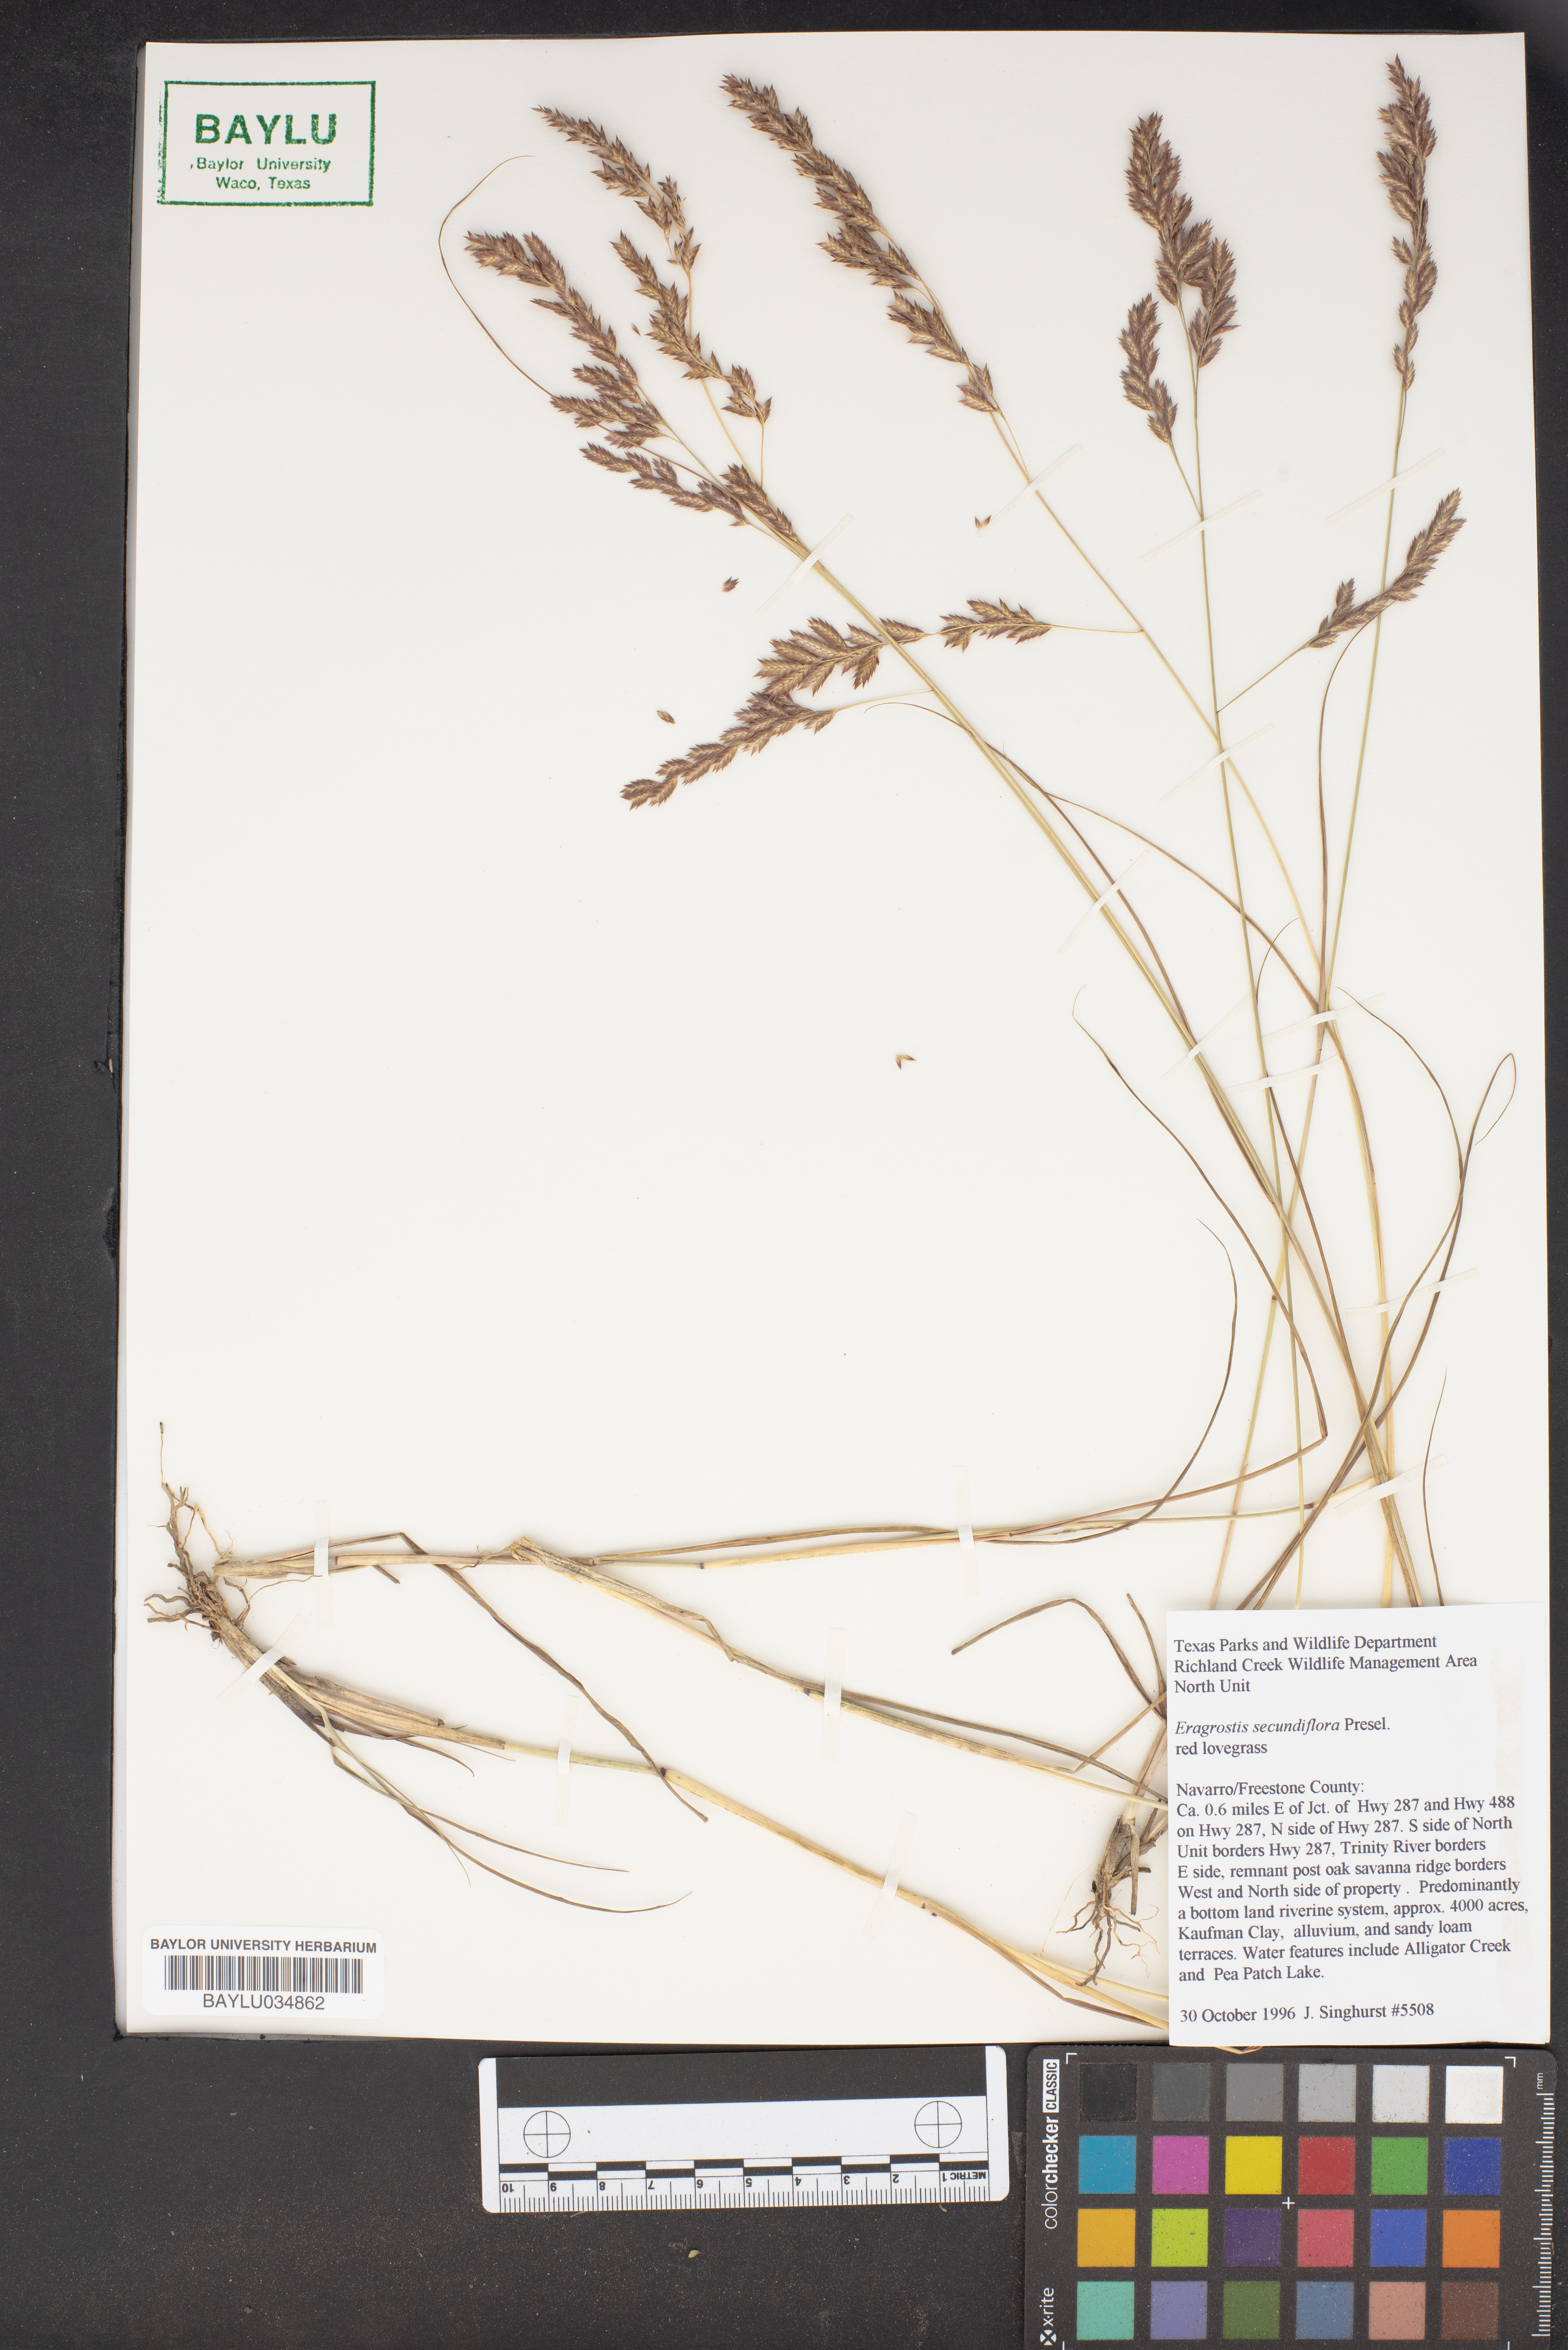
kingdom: Plantae
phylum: Tracheophyta
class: Liliopsida
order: Poales
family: Poaceae
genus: Eragrostis
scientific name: Eragrostis secundiflora
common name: Red love grass
